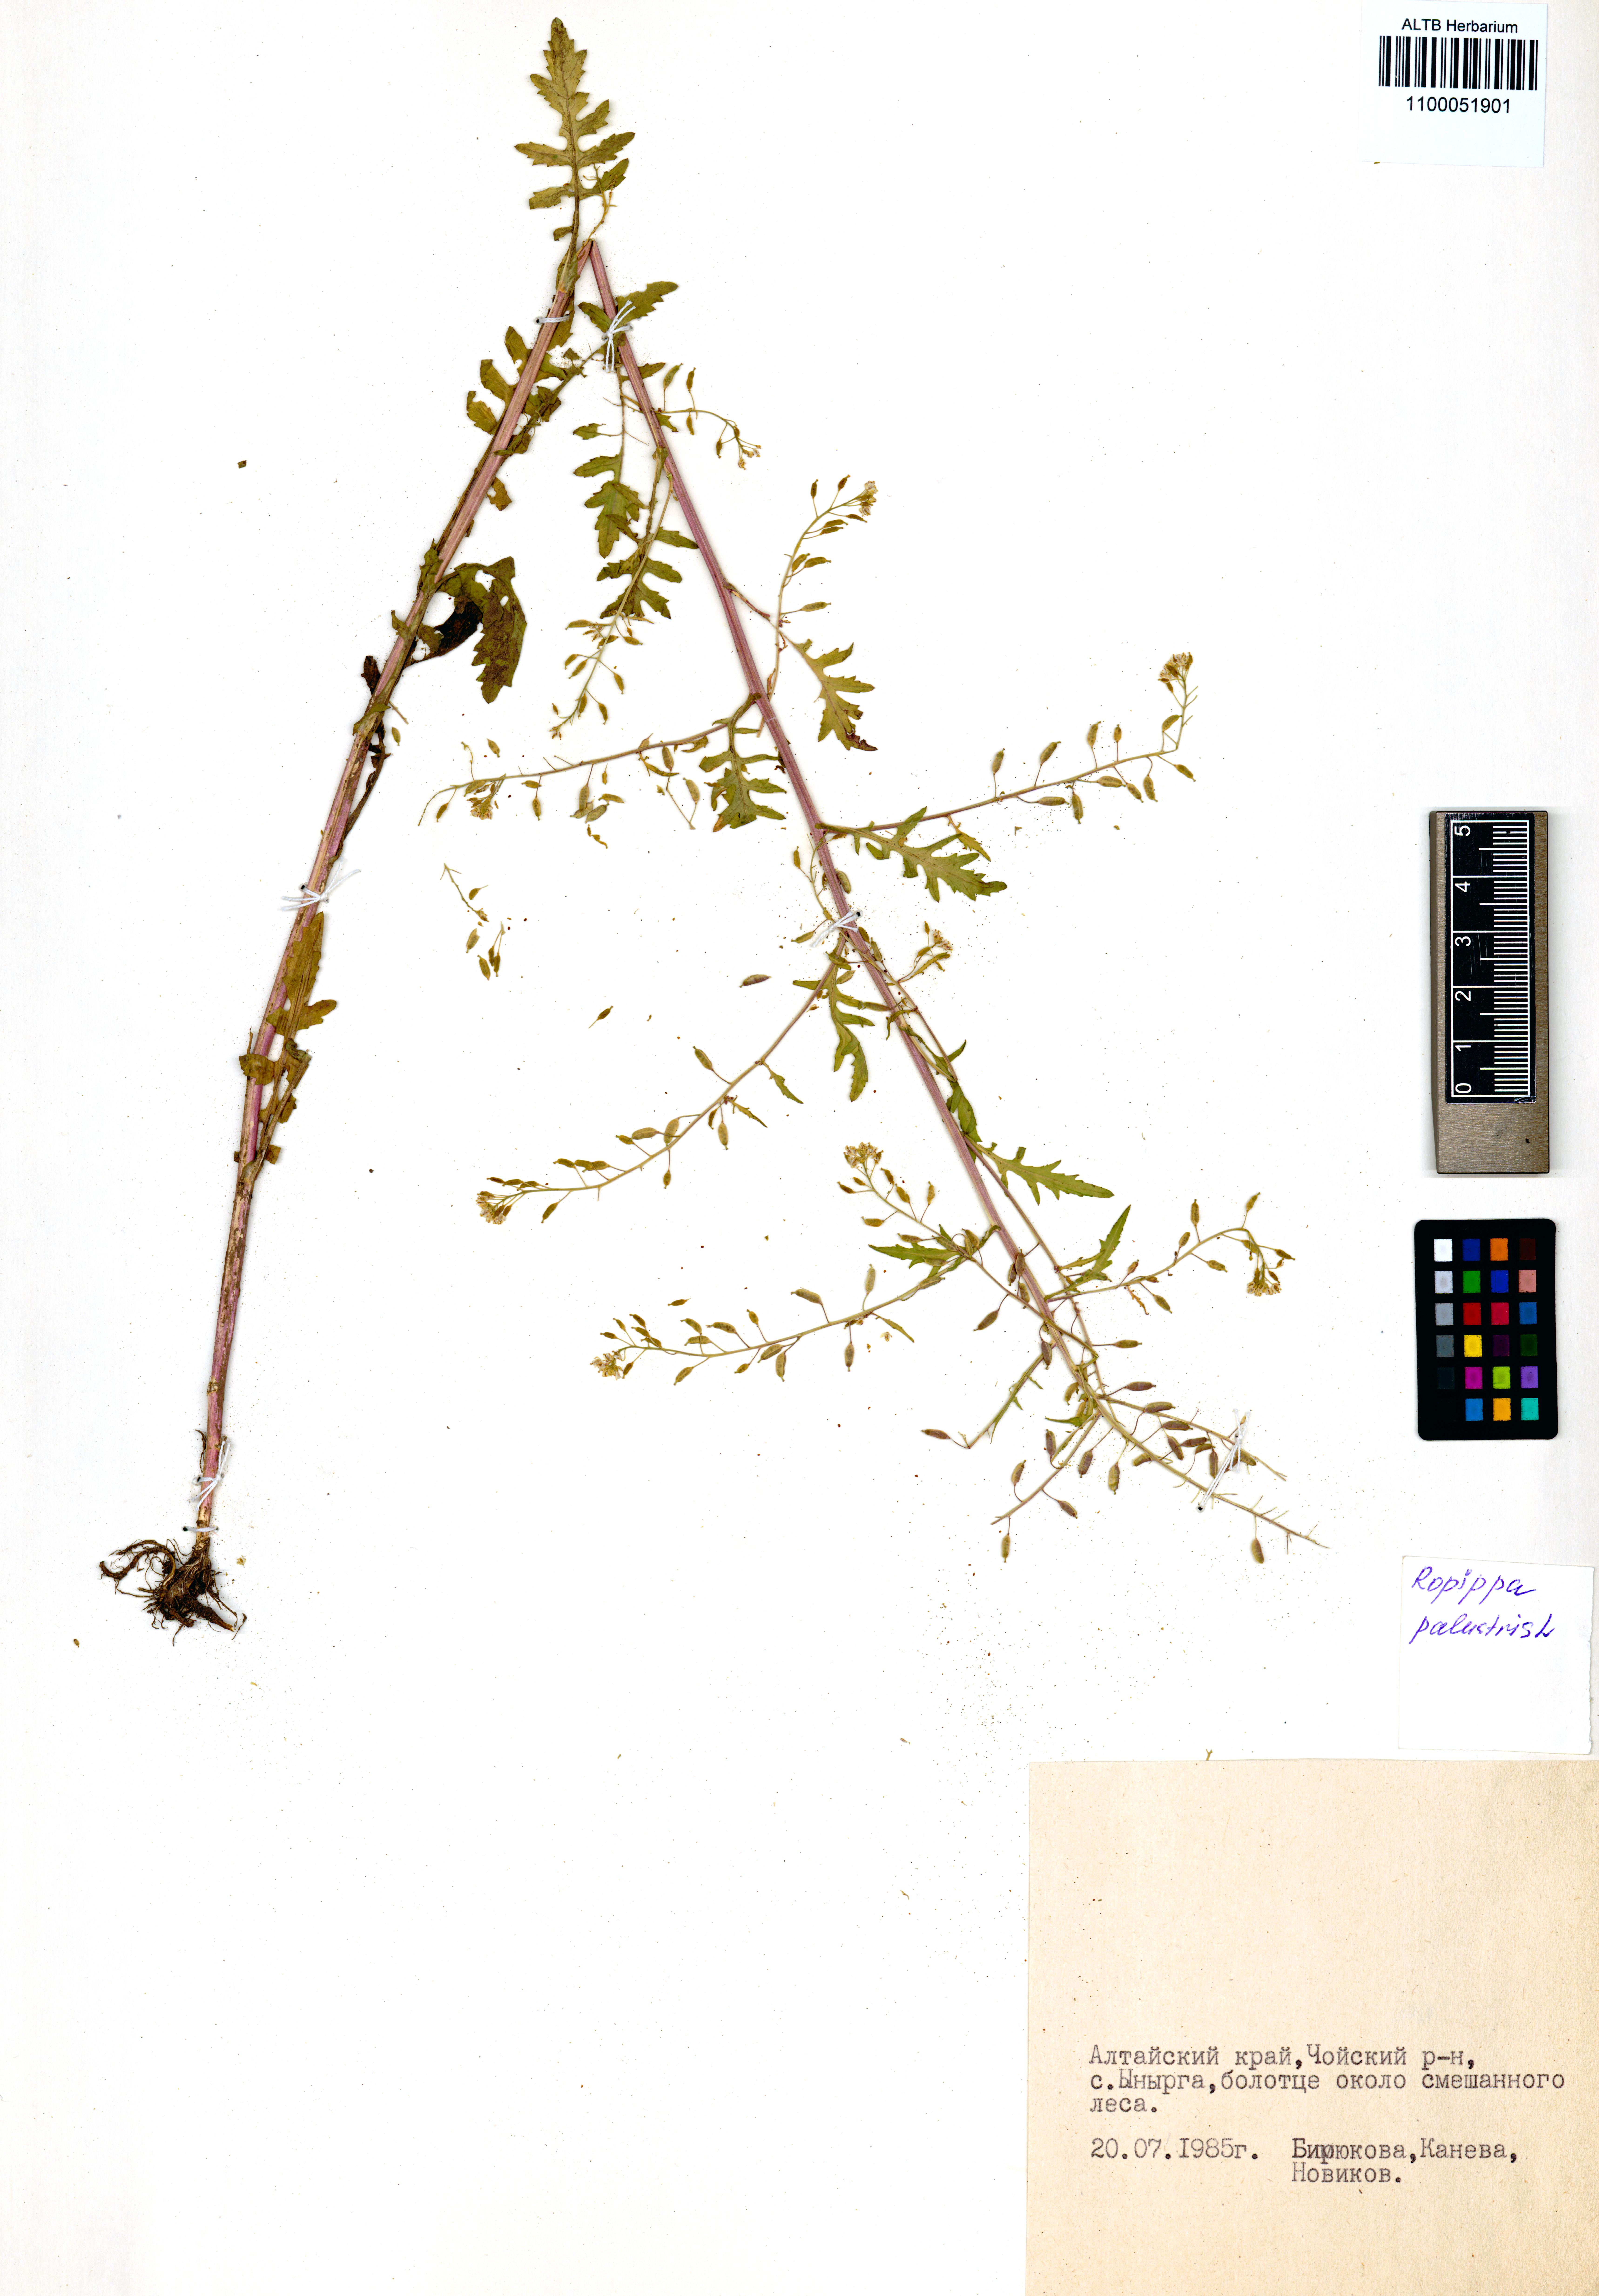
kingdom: Plantae
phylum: Tracheophyta
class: Magnoliopsida
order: Brassicales
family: Brassicaceae
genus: Rorippa
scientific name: Rorippa palustris
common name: Marsh yellow-cress
